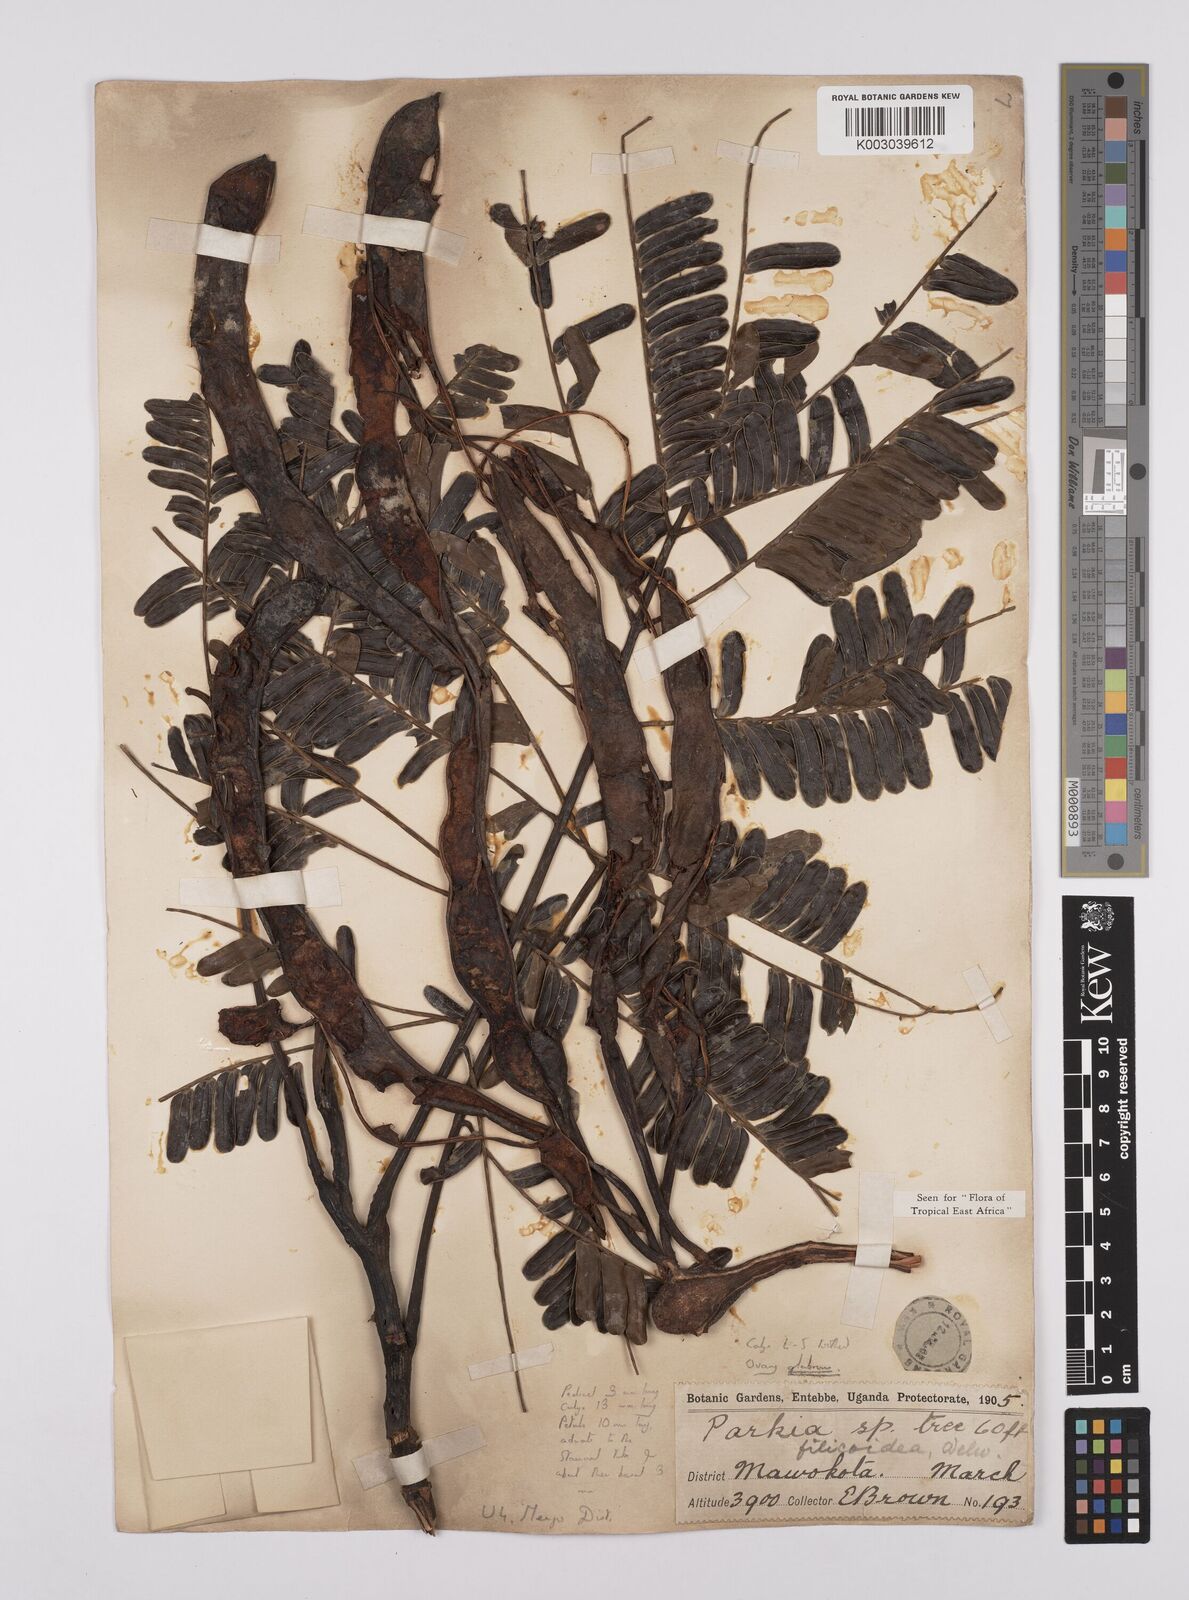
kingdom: Plantae
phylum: Tracheophyta
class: Magnoliopsida
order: Fabales
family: Fabaceae
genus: Parkia
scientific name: Parkia filicoidea
